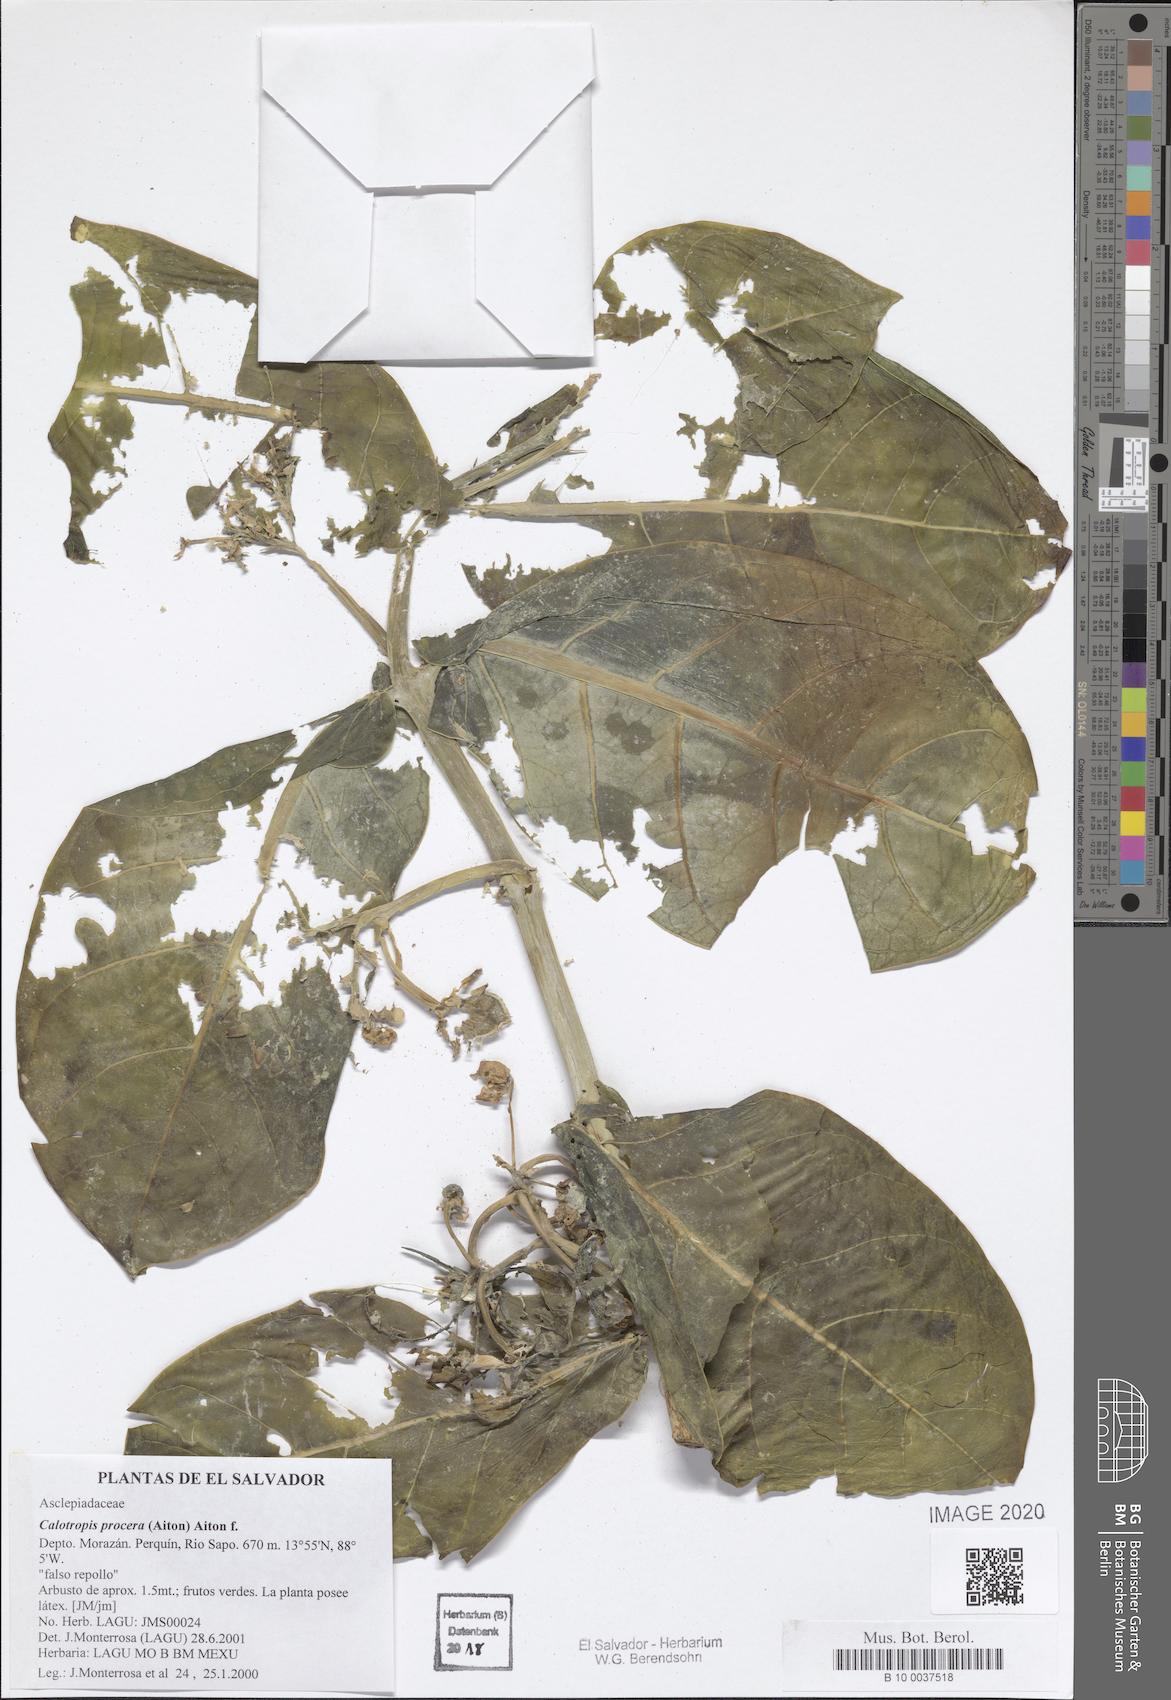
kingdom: Plantae
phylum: Tracheophyta
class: Magnoliopsida
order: Gentianales
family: Apocynaceae
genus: Calotropis
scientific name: Calotropis procera
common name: Roostertree
